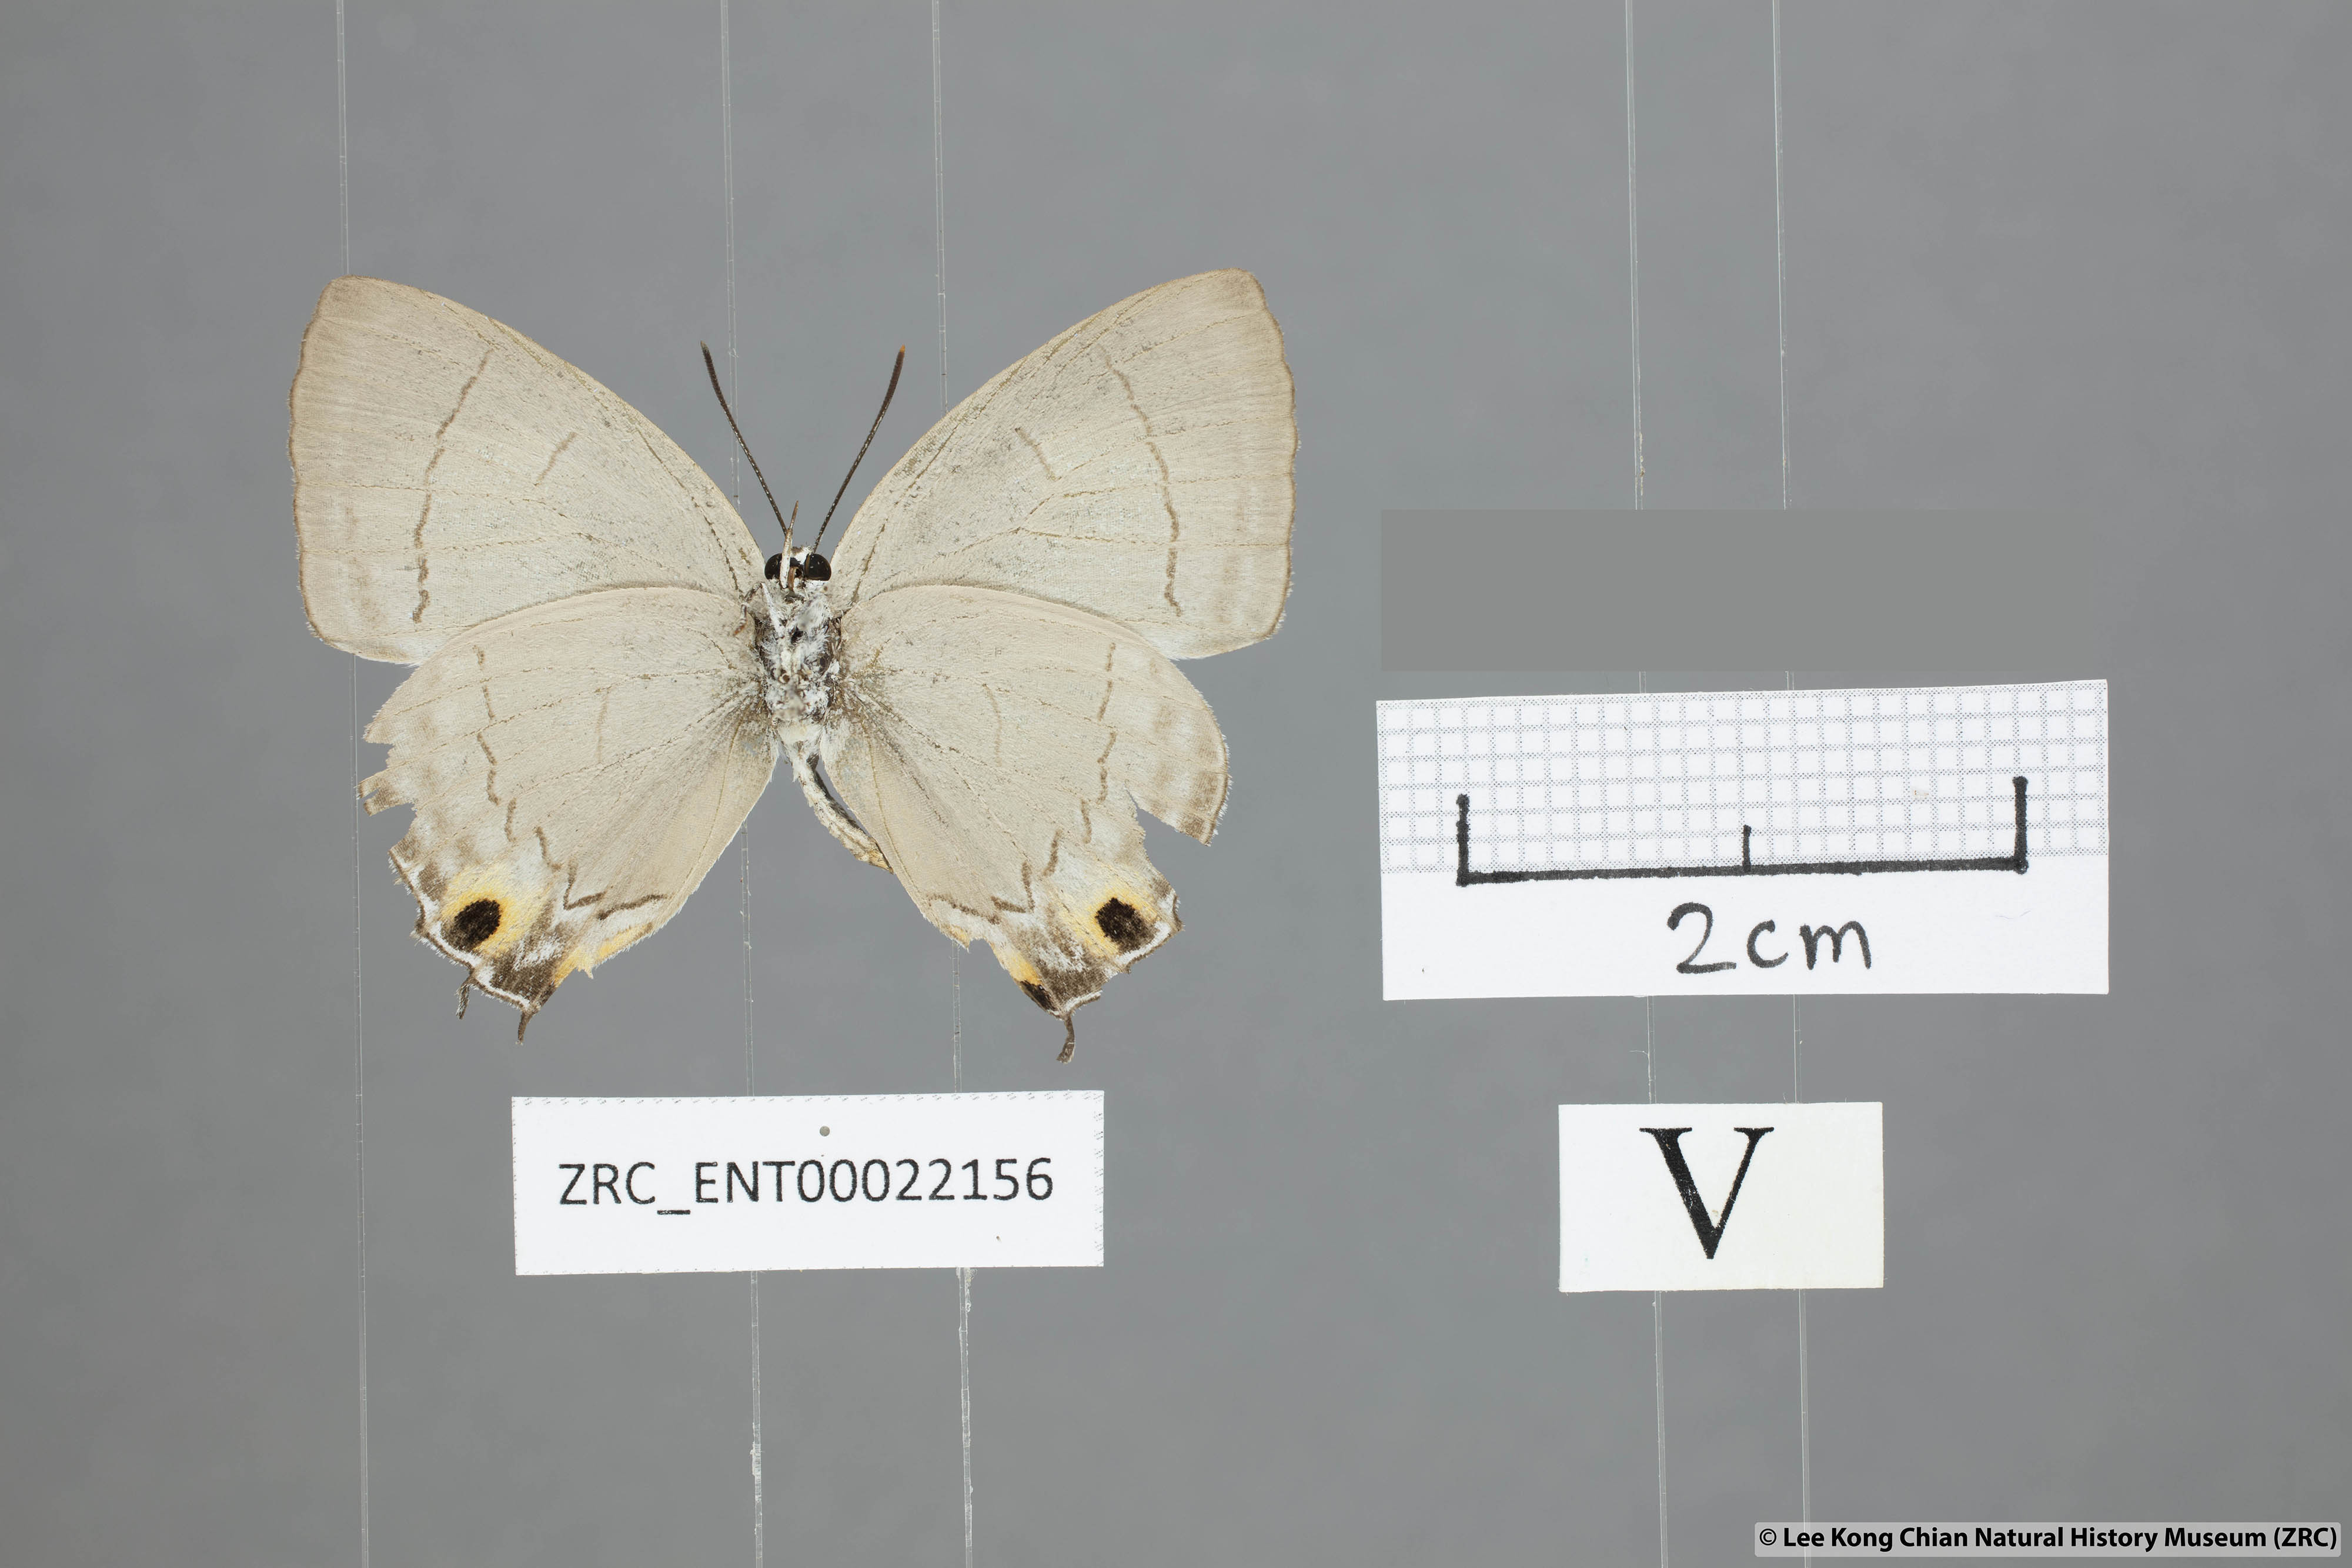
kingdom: Animalia
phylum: Arthropoda
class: Insecta
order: Lepidoptera
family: Lycaenidae
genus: Tajuria
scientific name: Tajuria jalajala
